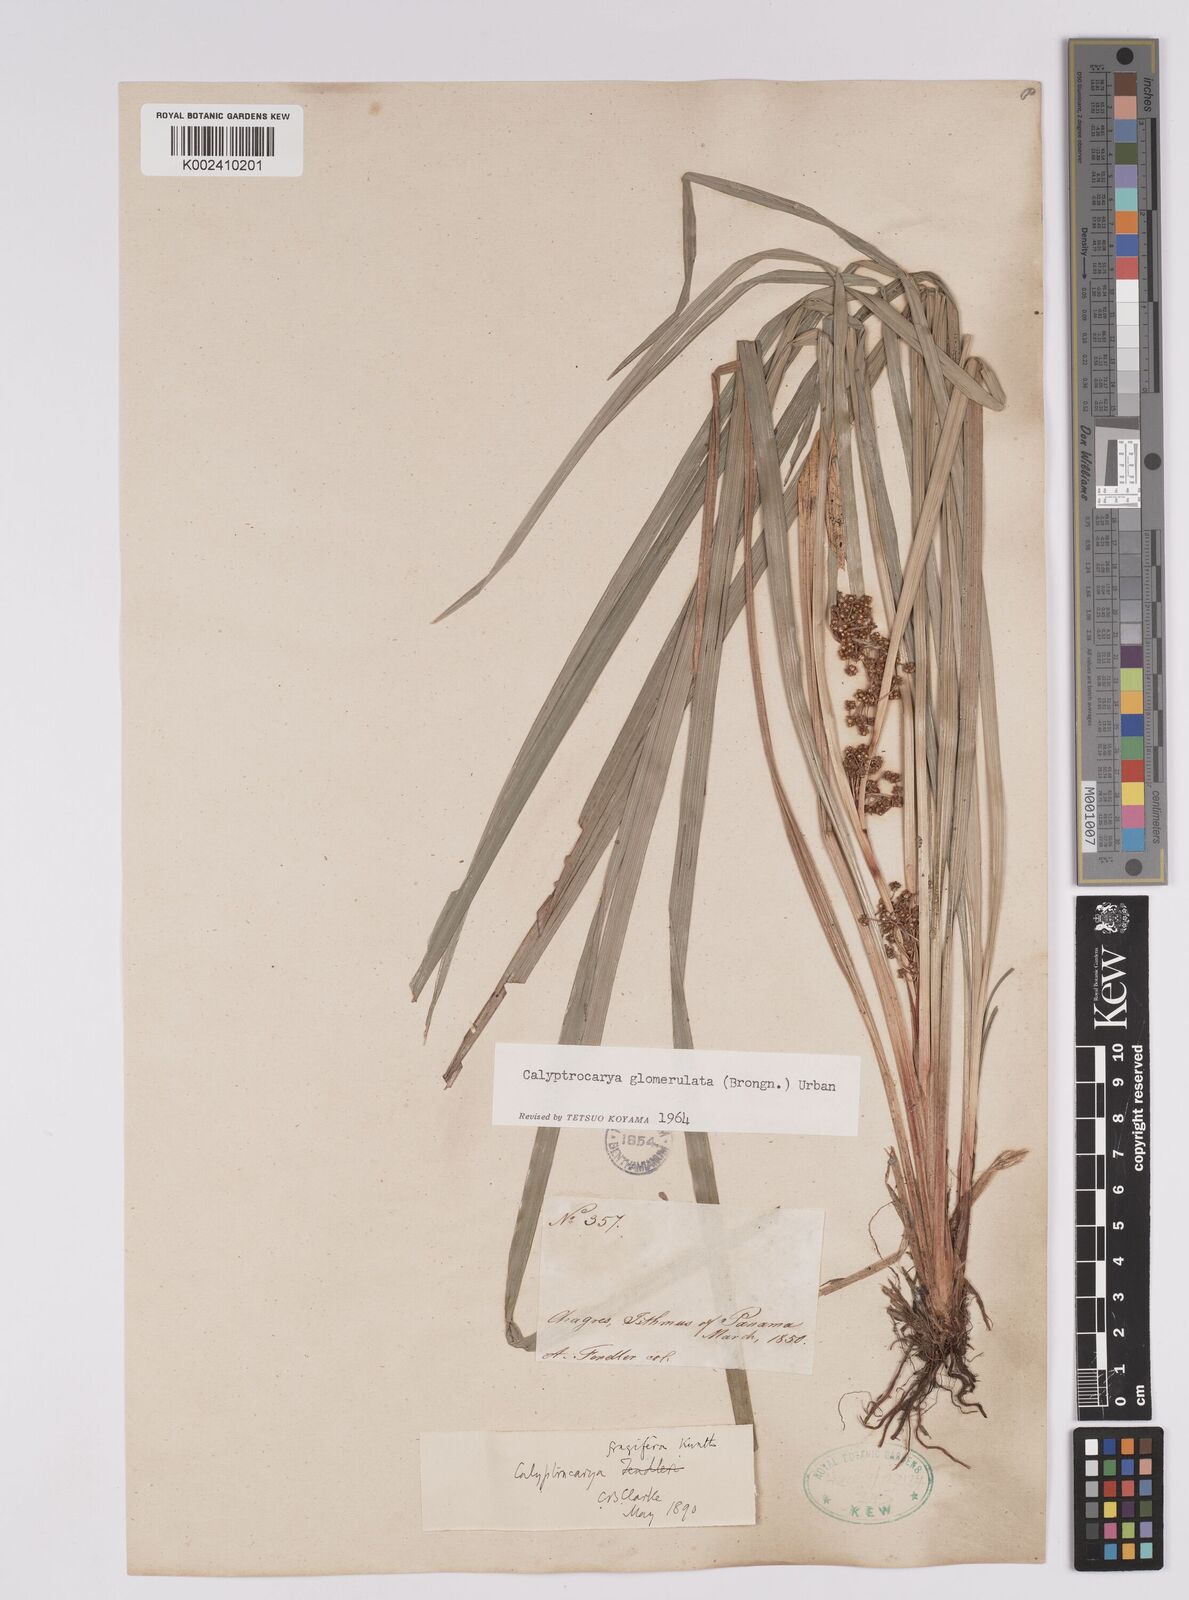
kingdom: Plantae
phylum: Tracheophyta
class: Liliopsida
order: Poales
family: Cyperaceae
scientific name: Cyperaceae
